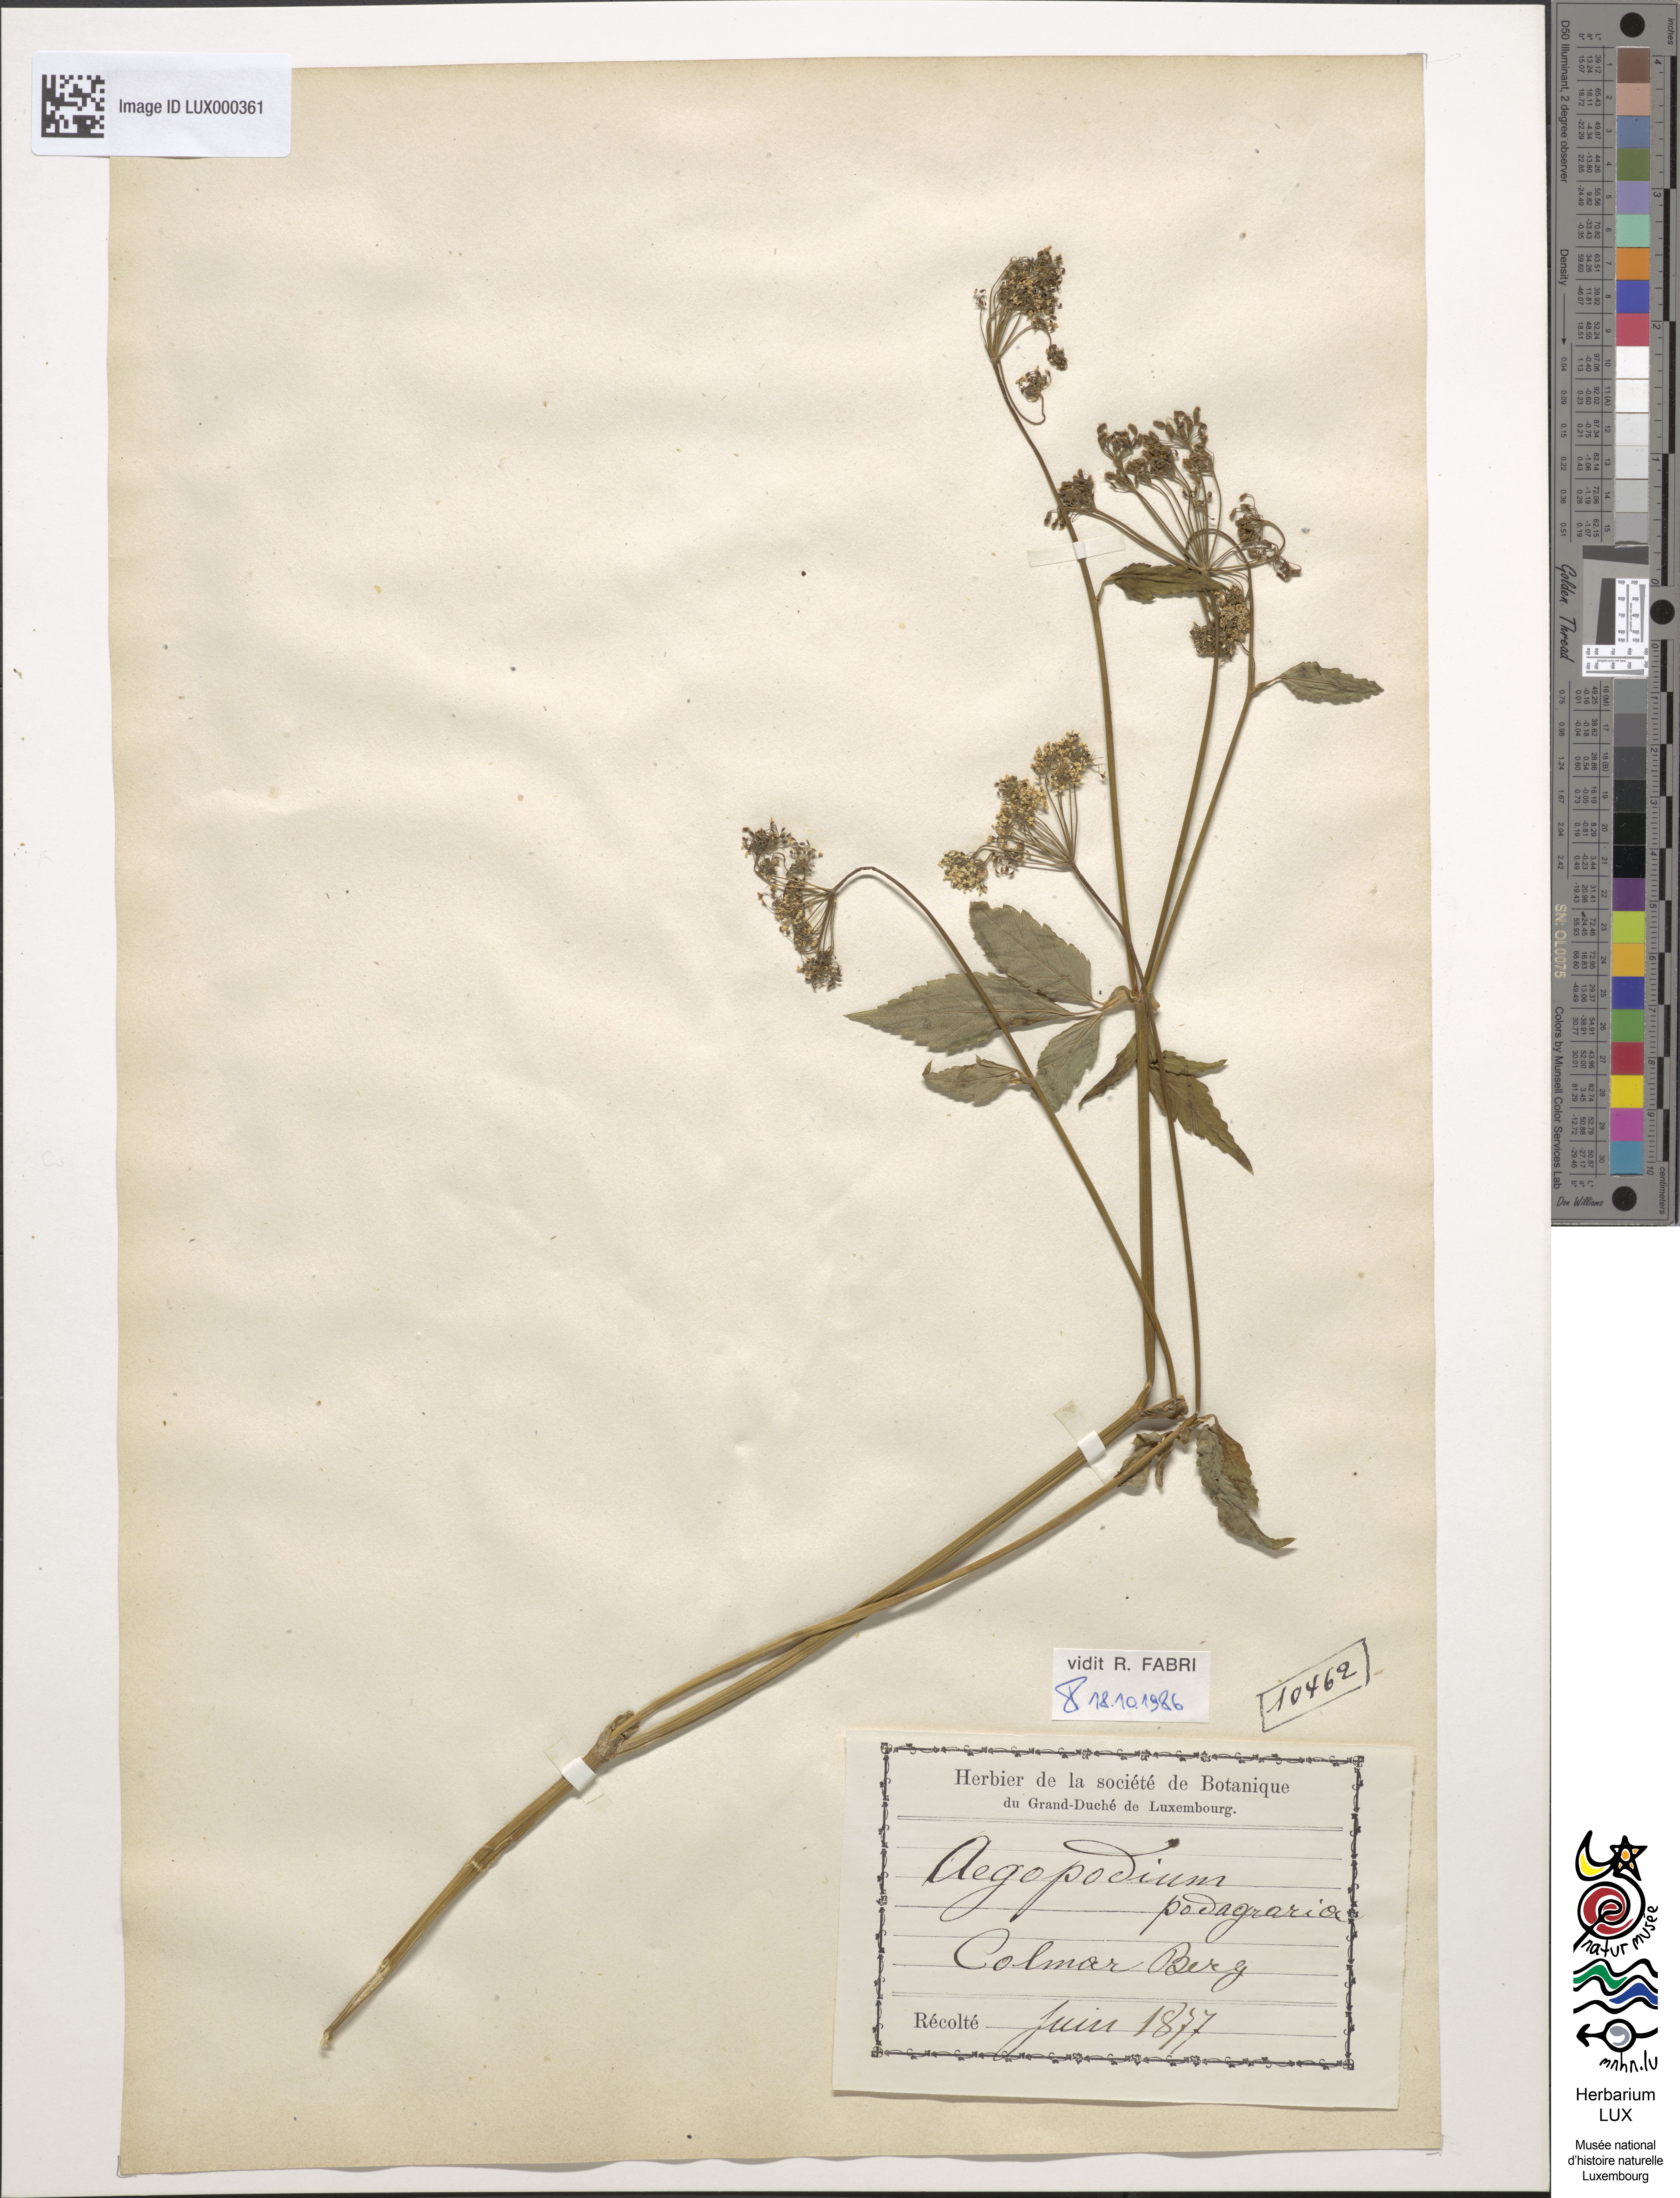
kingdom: Plantae
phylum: Tracheophyta
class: Magnoliopsida
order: Apiales
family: Apiaceae
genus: Aegopodium
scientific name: Aegopodium podagraria
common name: Ground-elder
